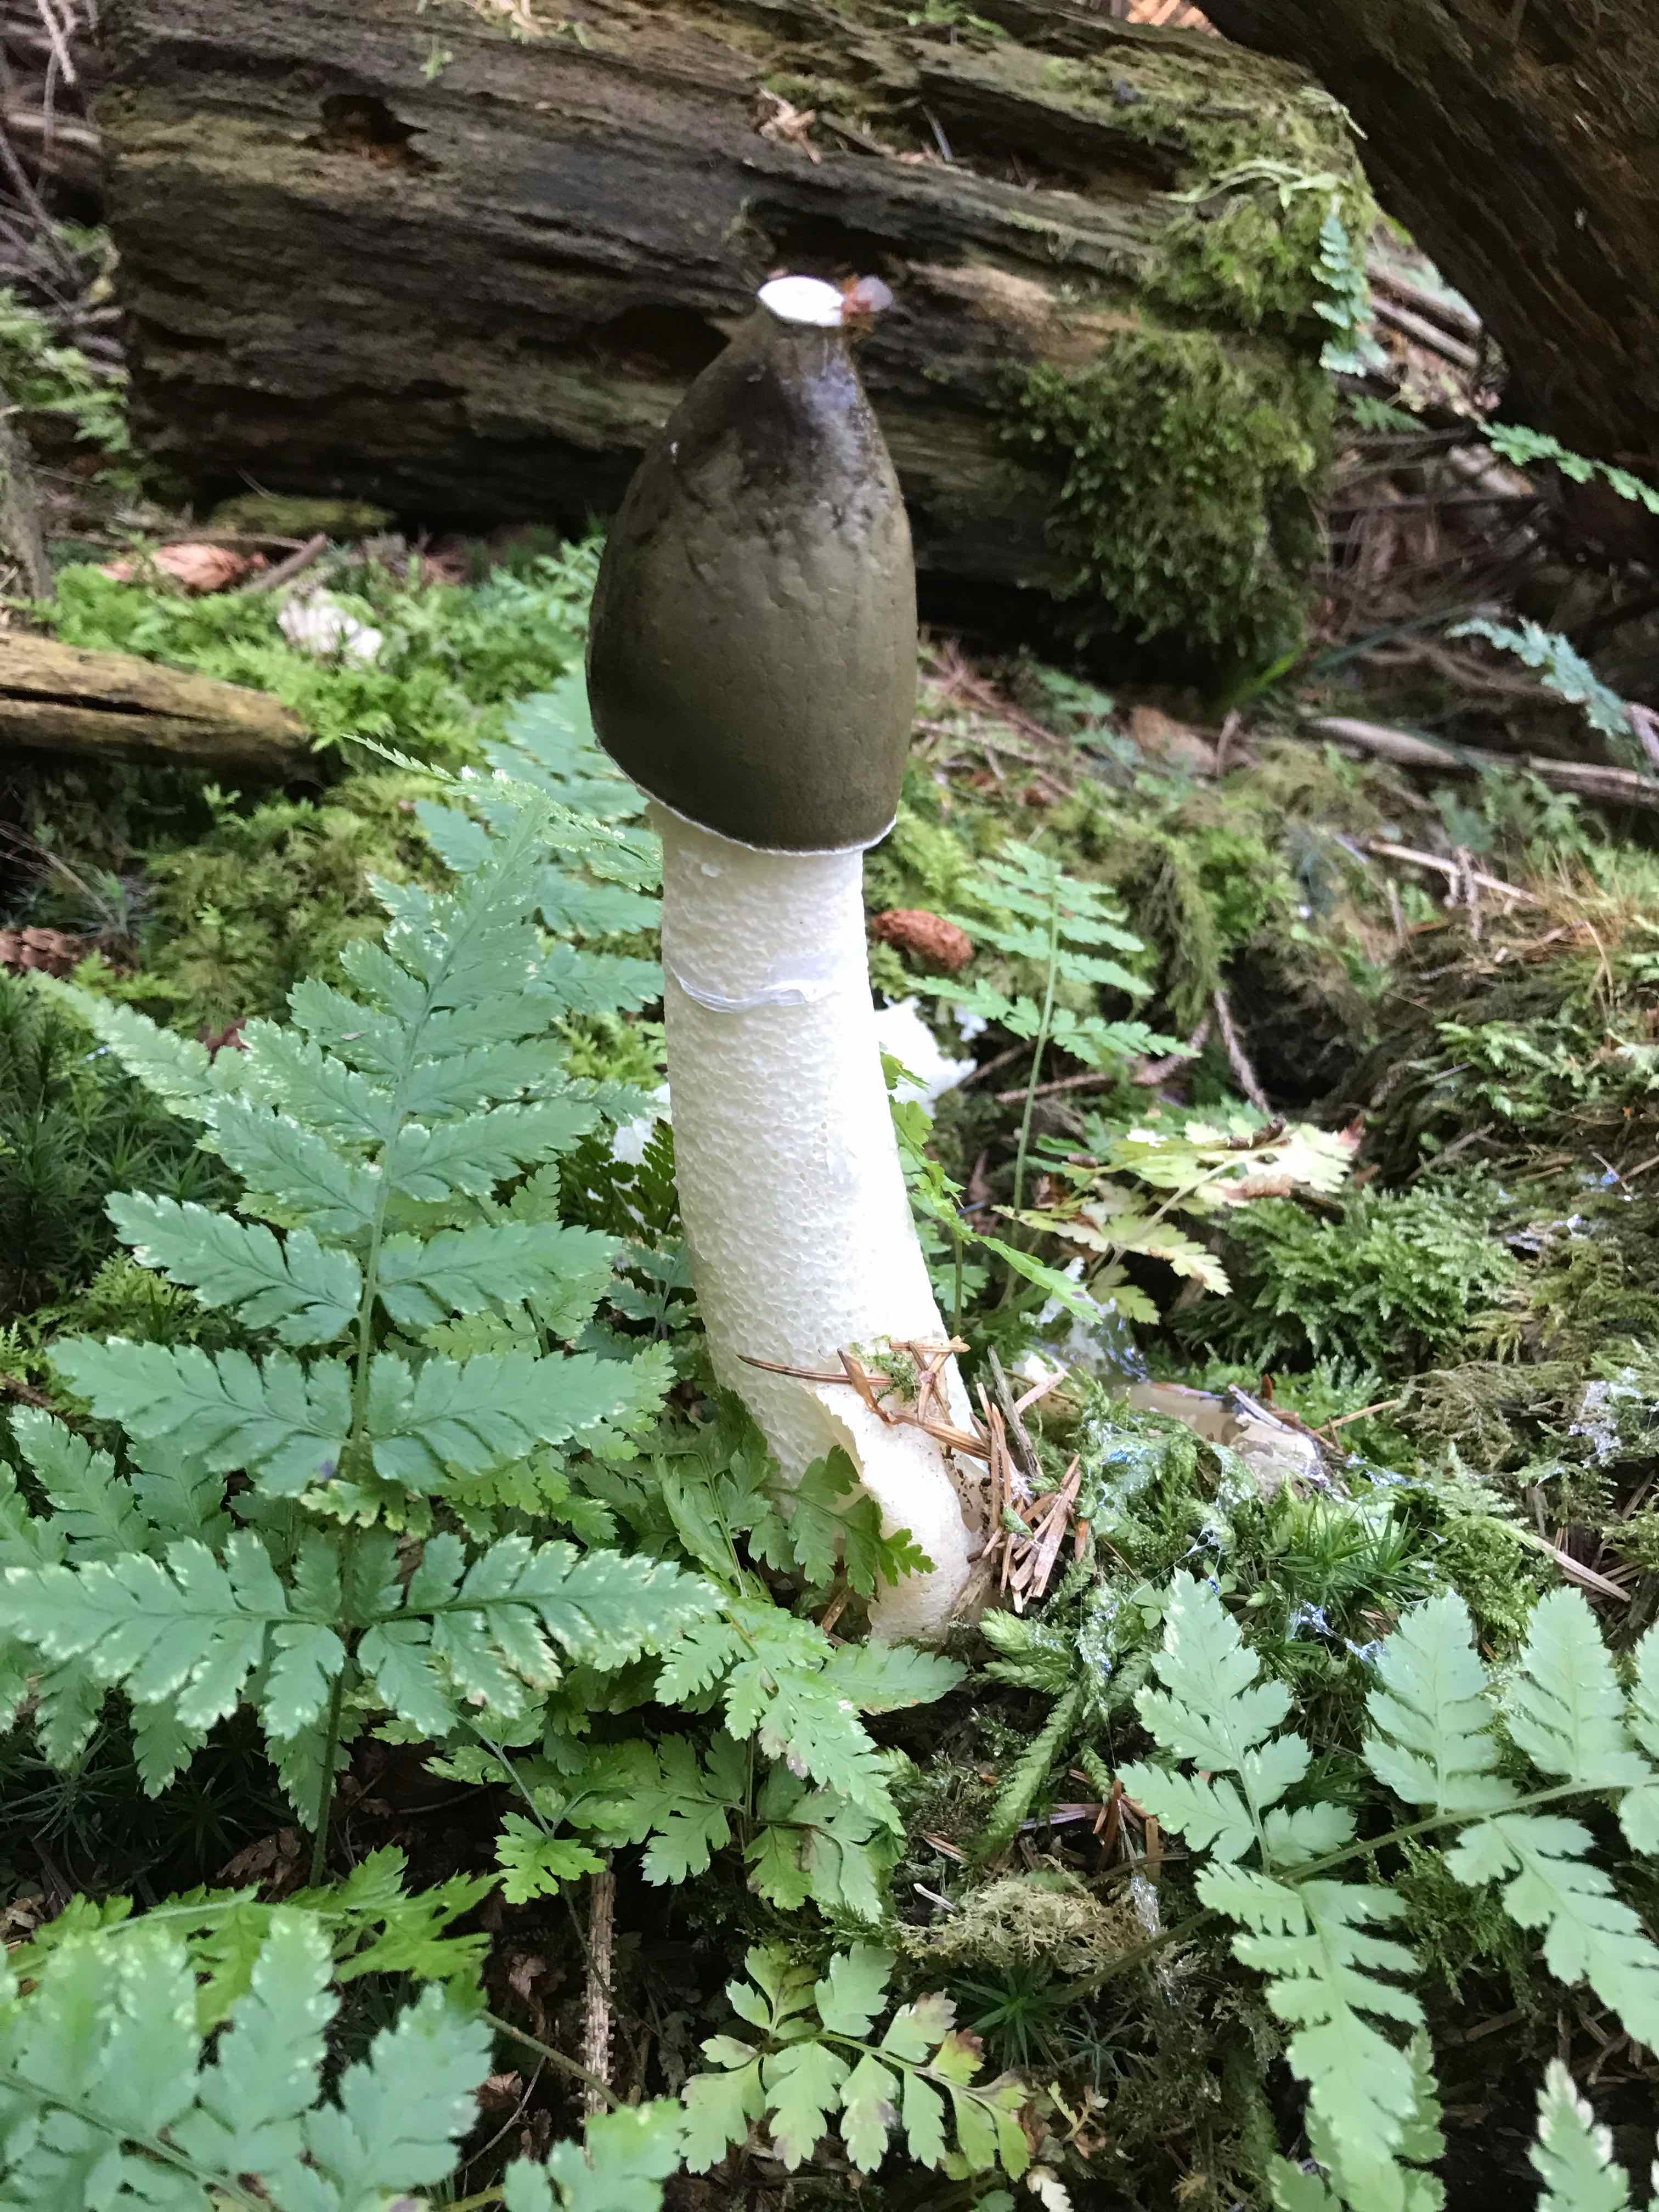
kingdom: Fungi
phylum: Basidiomycota
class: Agaricomycetes
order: Phallales
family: Phallaceae
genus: Phallus
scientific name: Phallus impudicus
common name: almindelig stinksvamp
